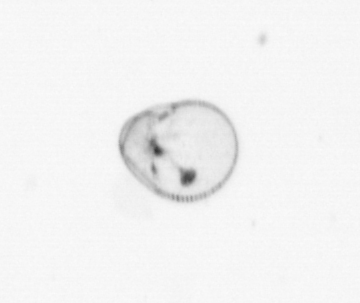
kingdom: Chromista
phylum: Myzozoa
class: Dinophyceae
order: Noctilucales
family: Noctilucaceae
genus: Noctiluca
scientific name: Noctiluca scintillans
